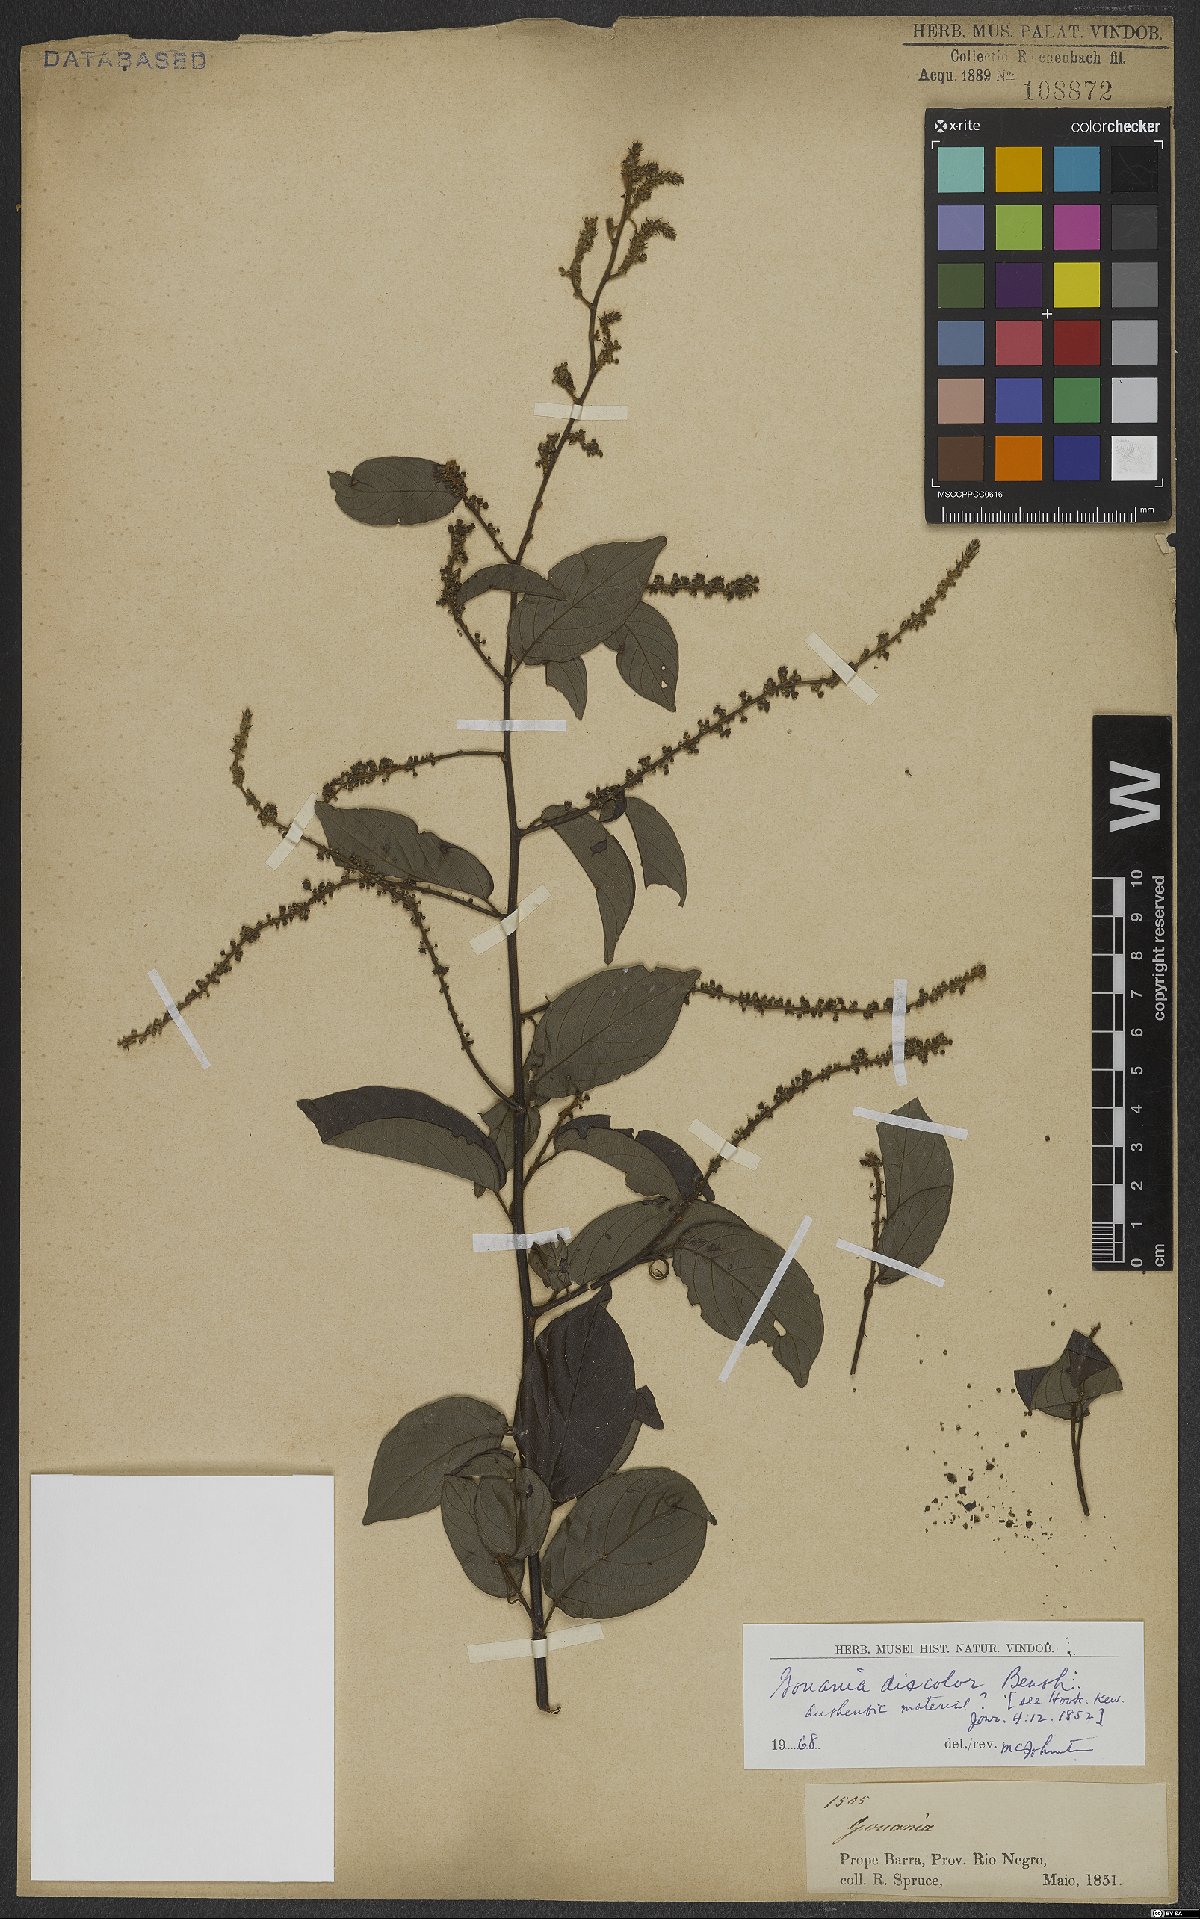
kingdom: Plantae
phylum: Tracheophyta
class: Magnoliopsida
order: Rosales
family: Rhamnaceae
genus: Gouania
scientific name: Gouania discolor
